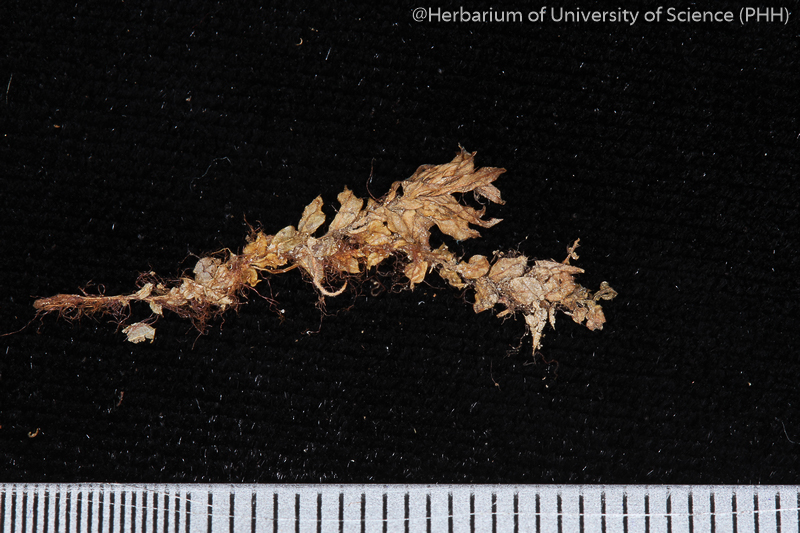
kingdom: Plantae
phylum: Bryophyta
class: Bryopsida
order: Bryales
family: Mniaceae
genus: Plagiomnium
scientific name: Plagiomnium rhynchophorum
